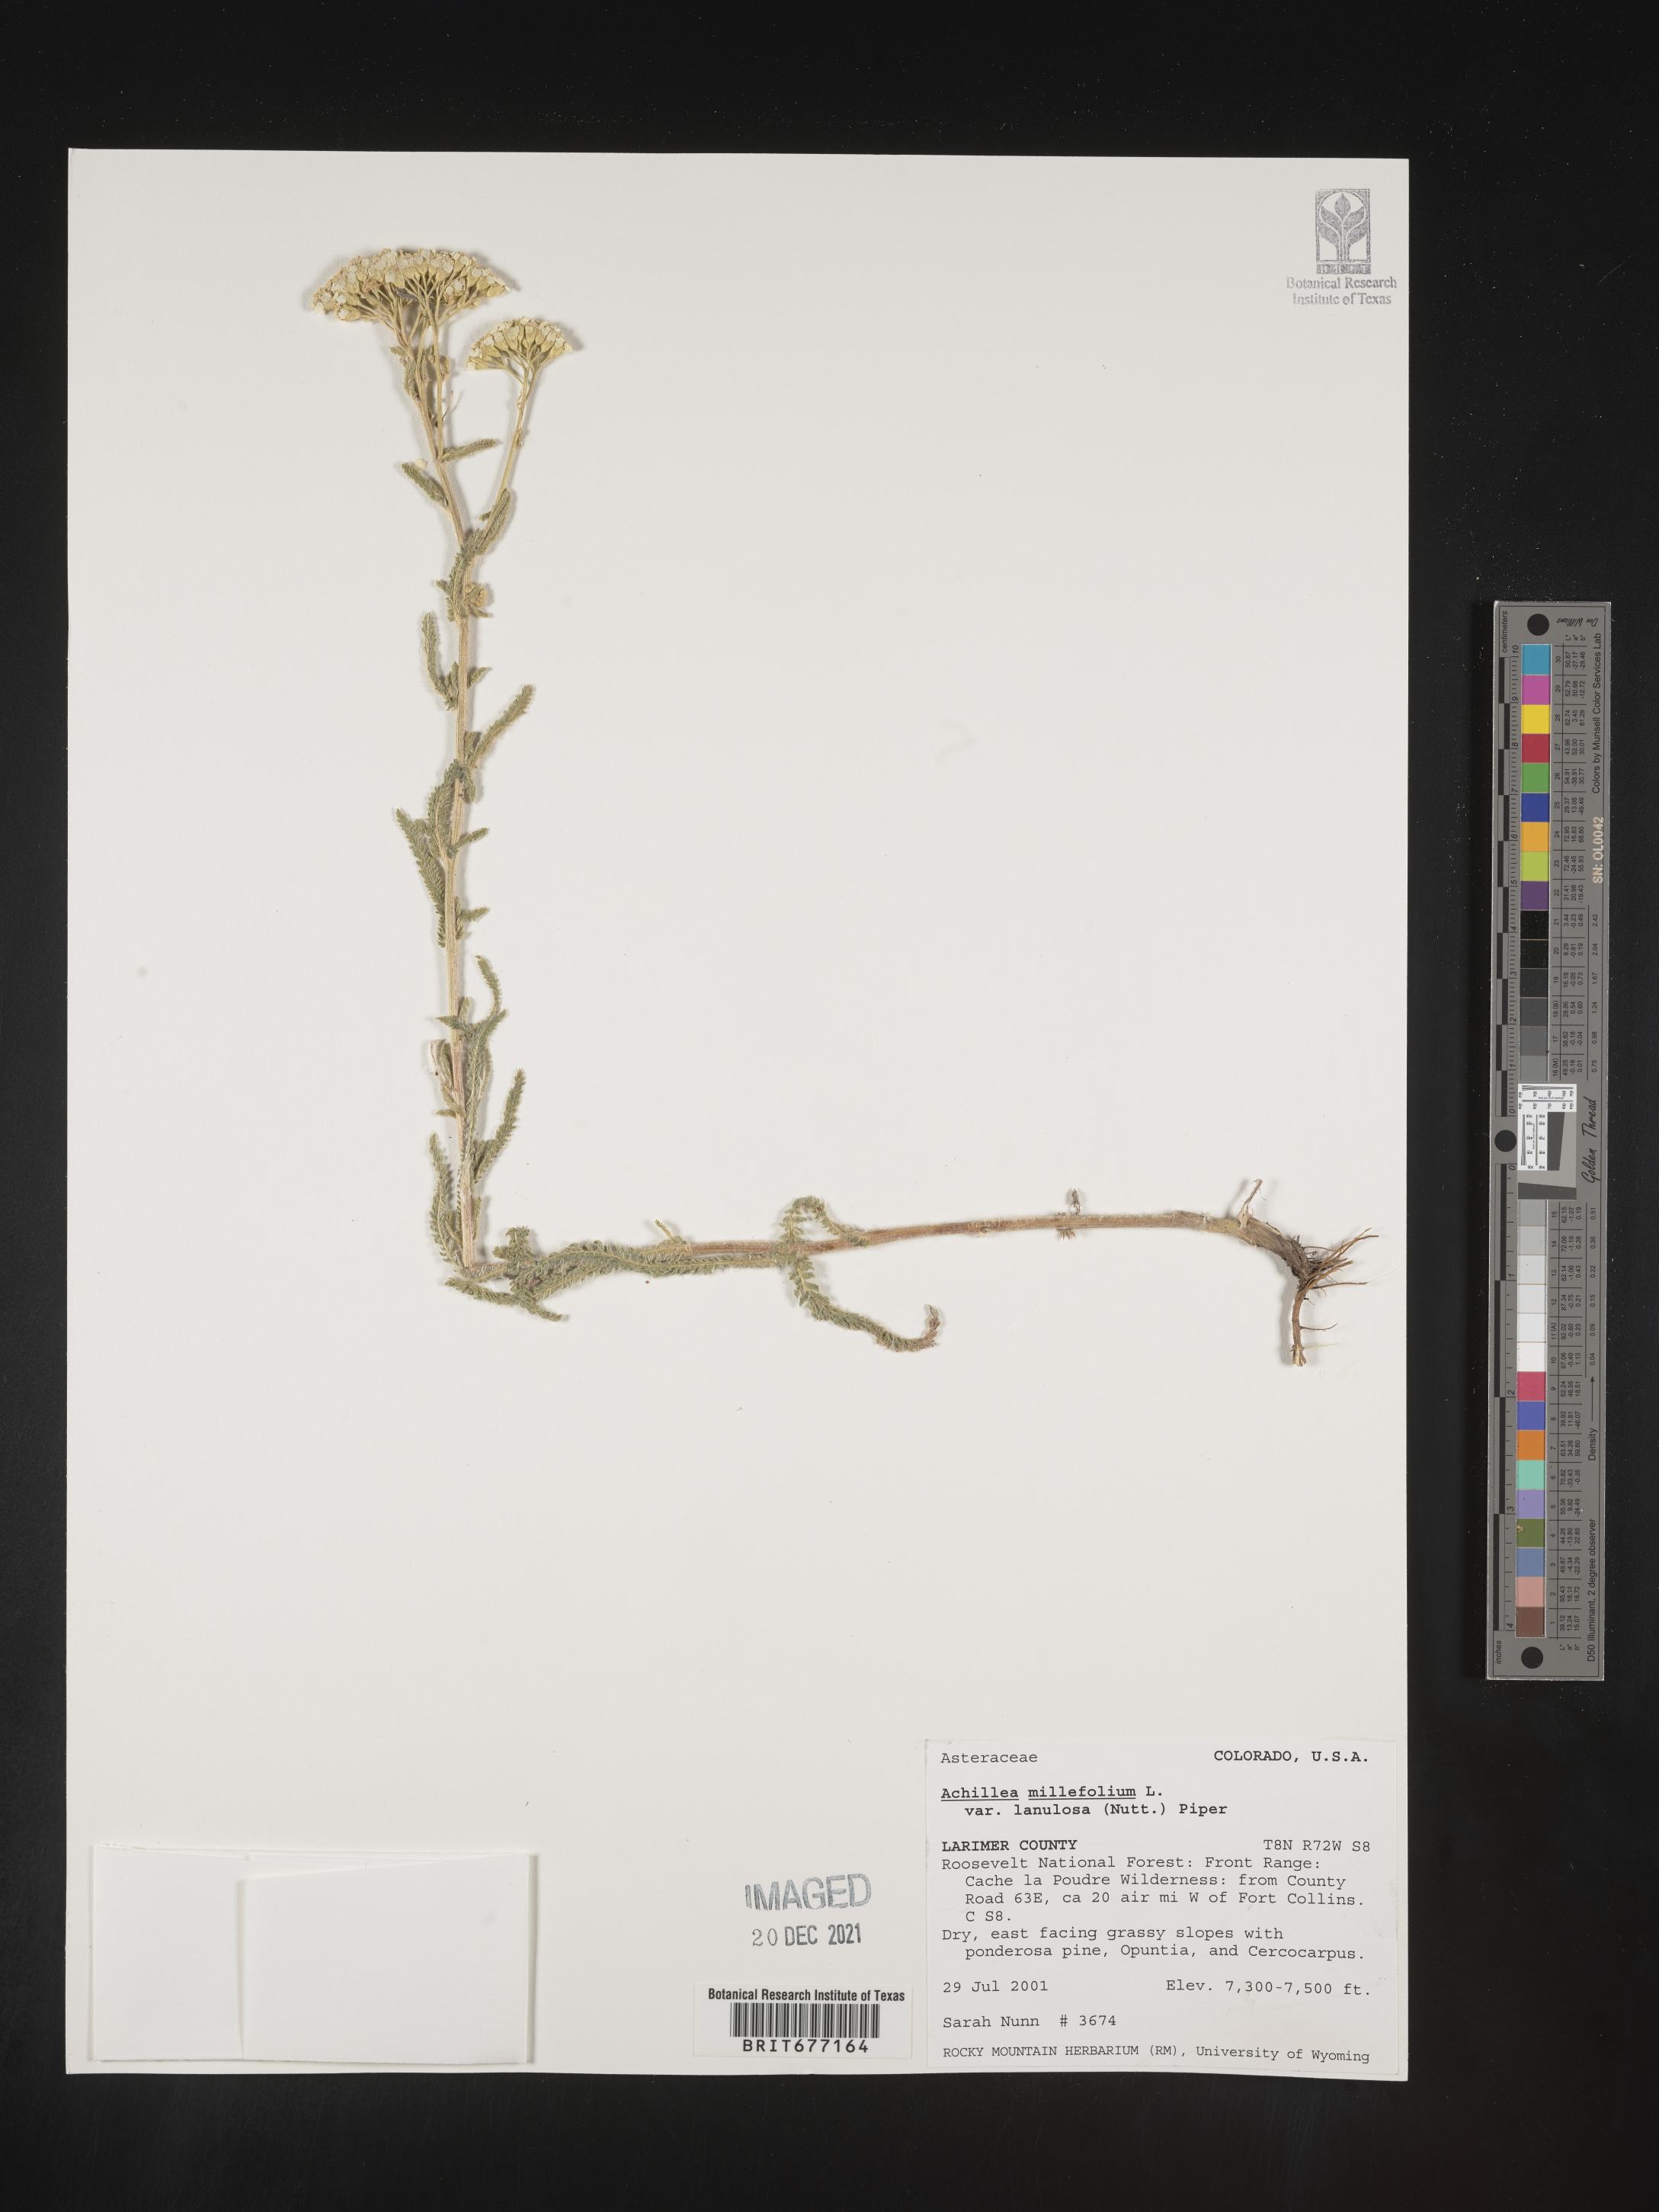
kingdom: Plantae
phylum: Tracheophyta
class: Magnoliopsida
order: Asterales
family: Asteraceae
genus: Achillea
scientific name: Achillea millefolium
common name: Yarrow
